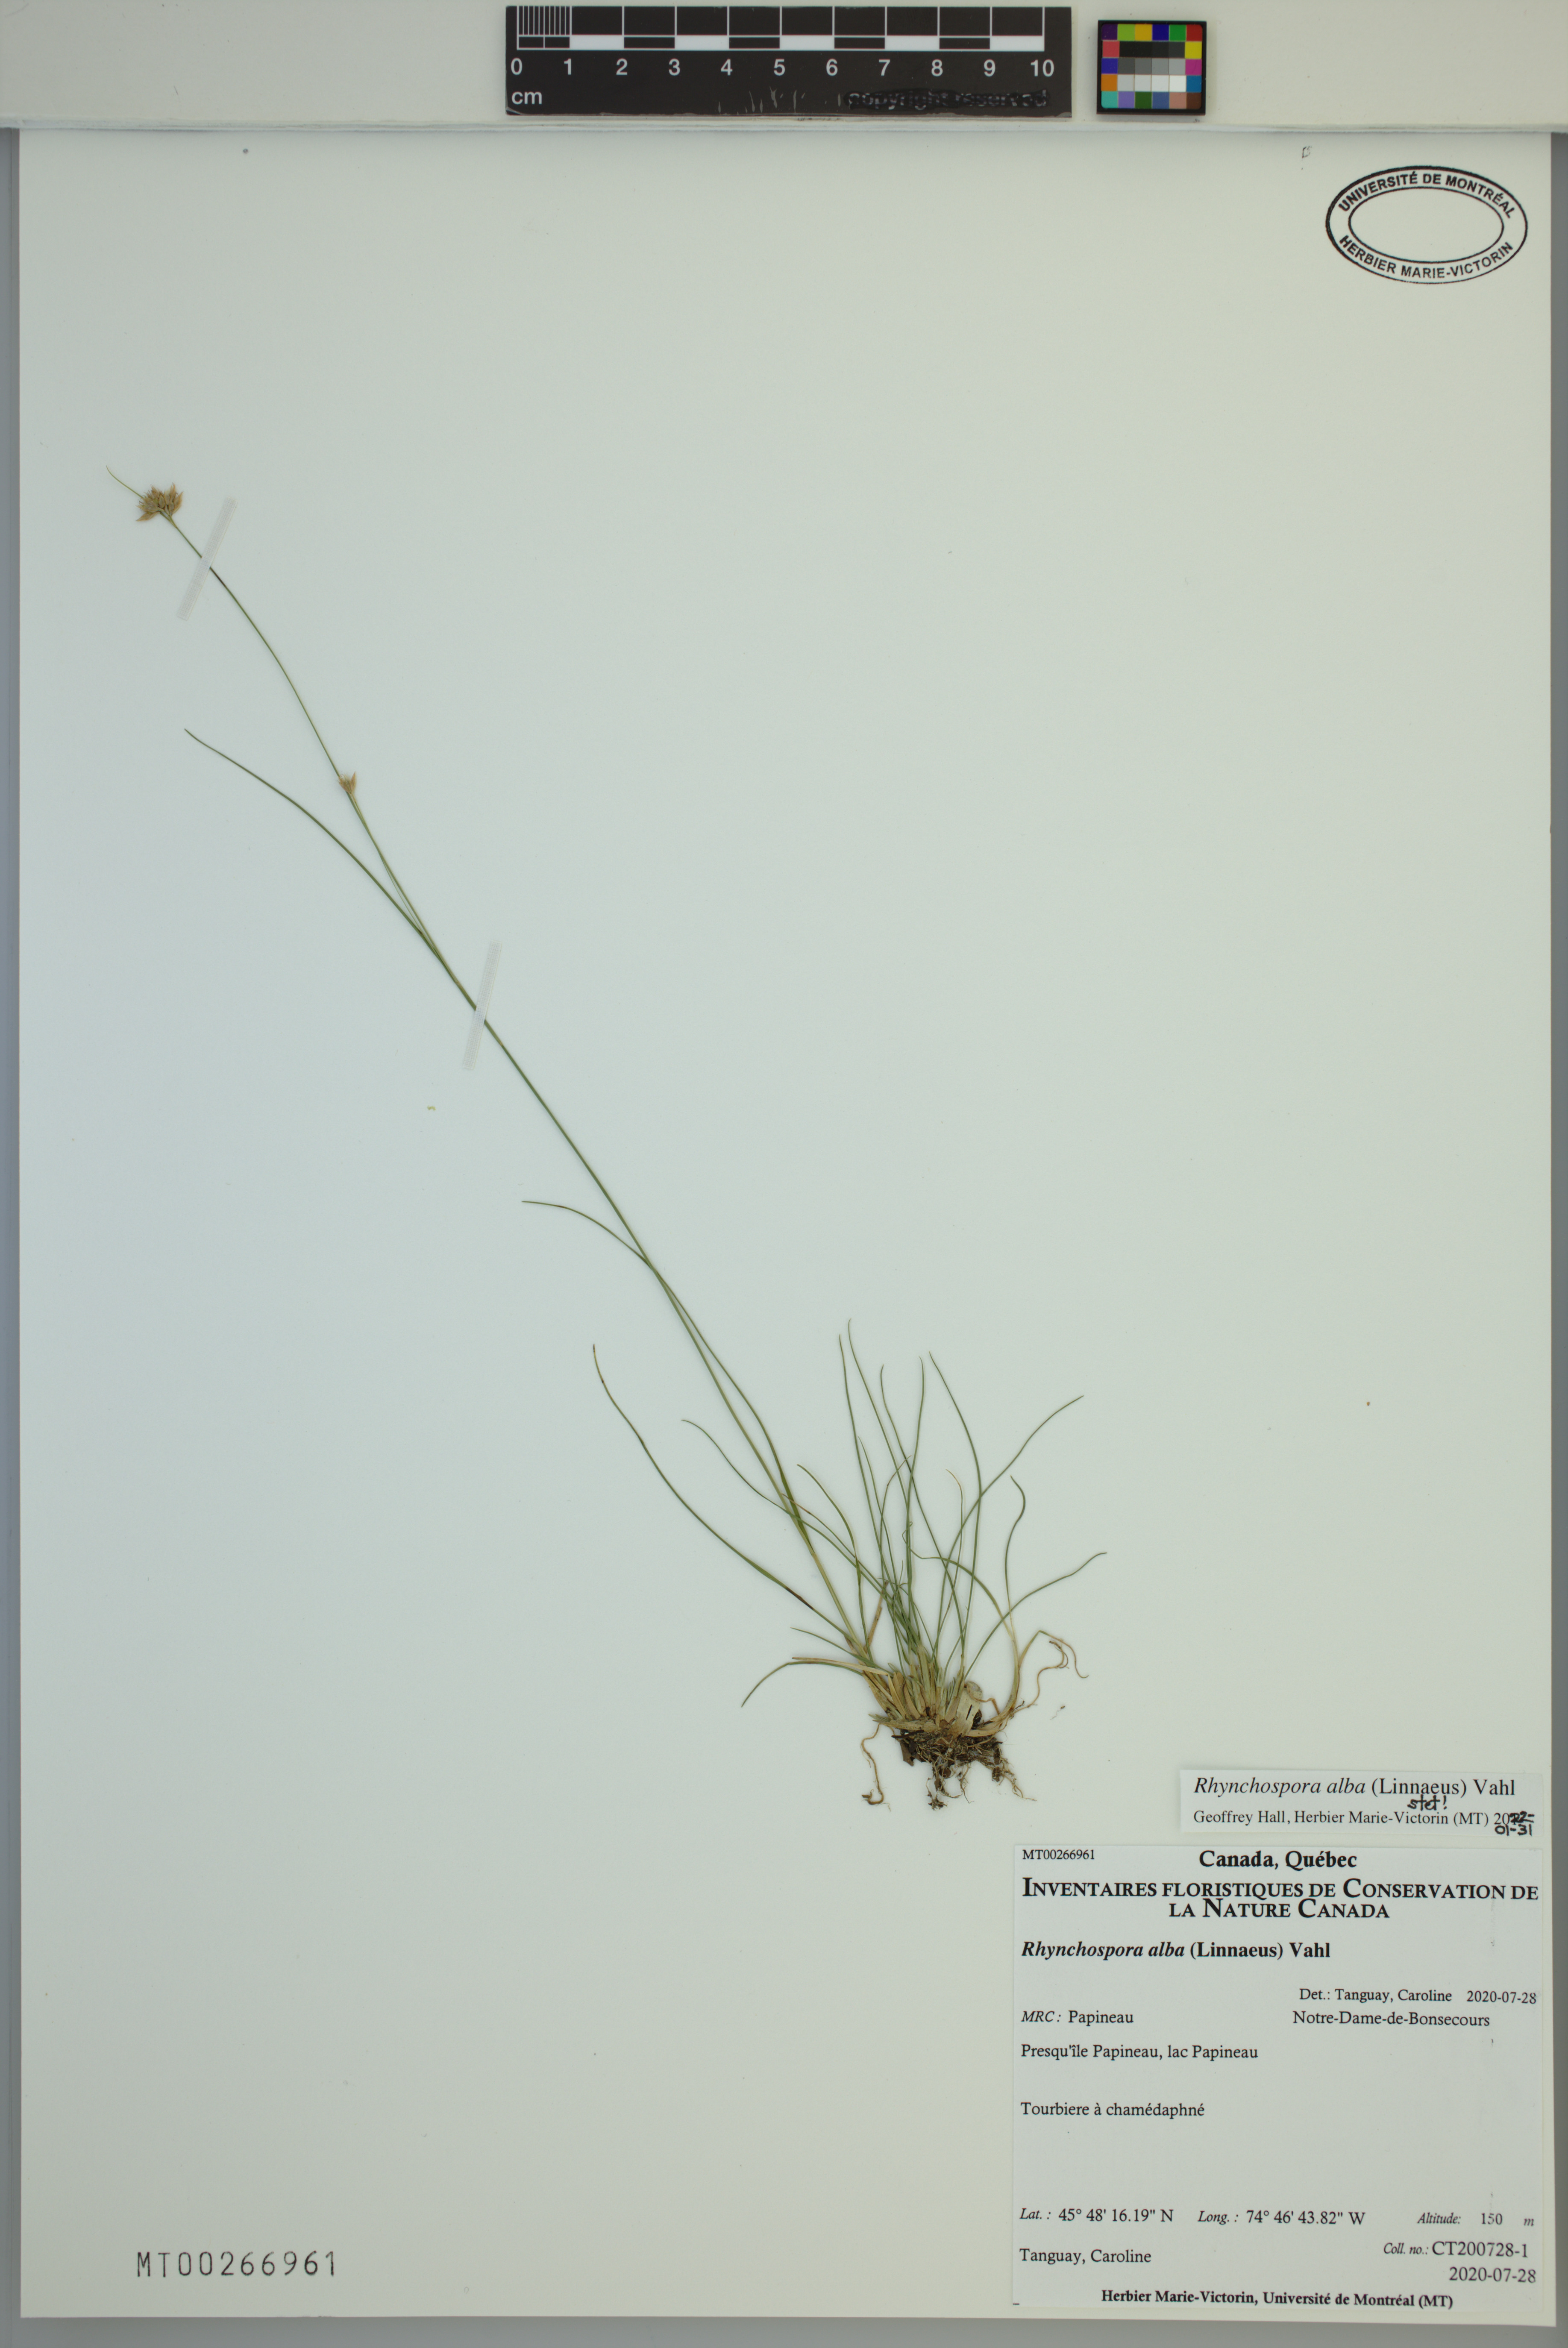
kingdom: Plantae
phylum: Tracheophyta
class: Liliopsida
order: Poales
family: Cyperaceae
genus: Rhynchospora
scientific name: Rhynchospora alba
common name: White beak-sedge
